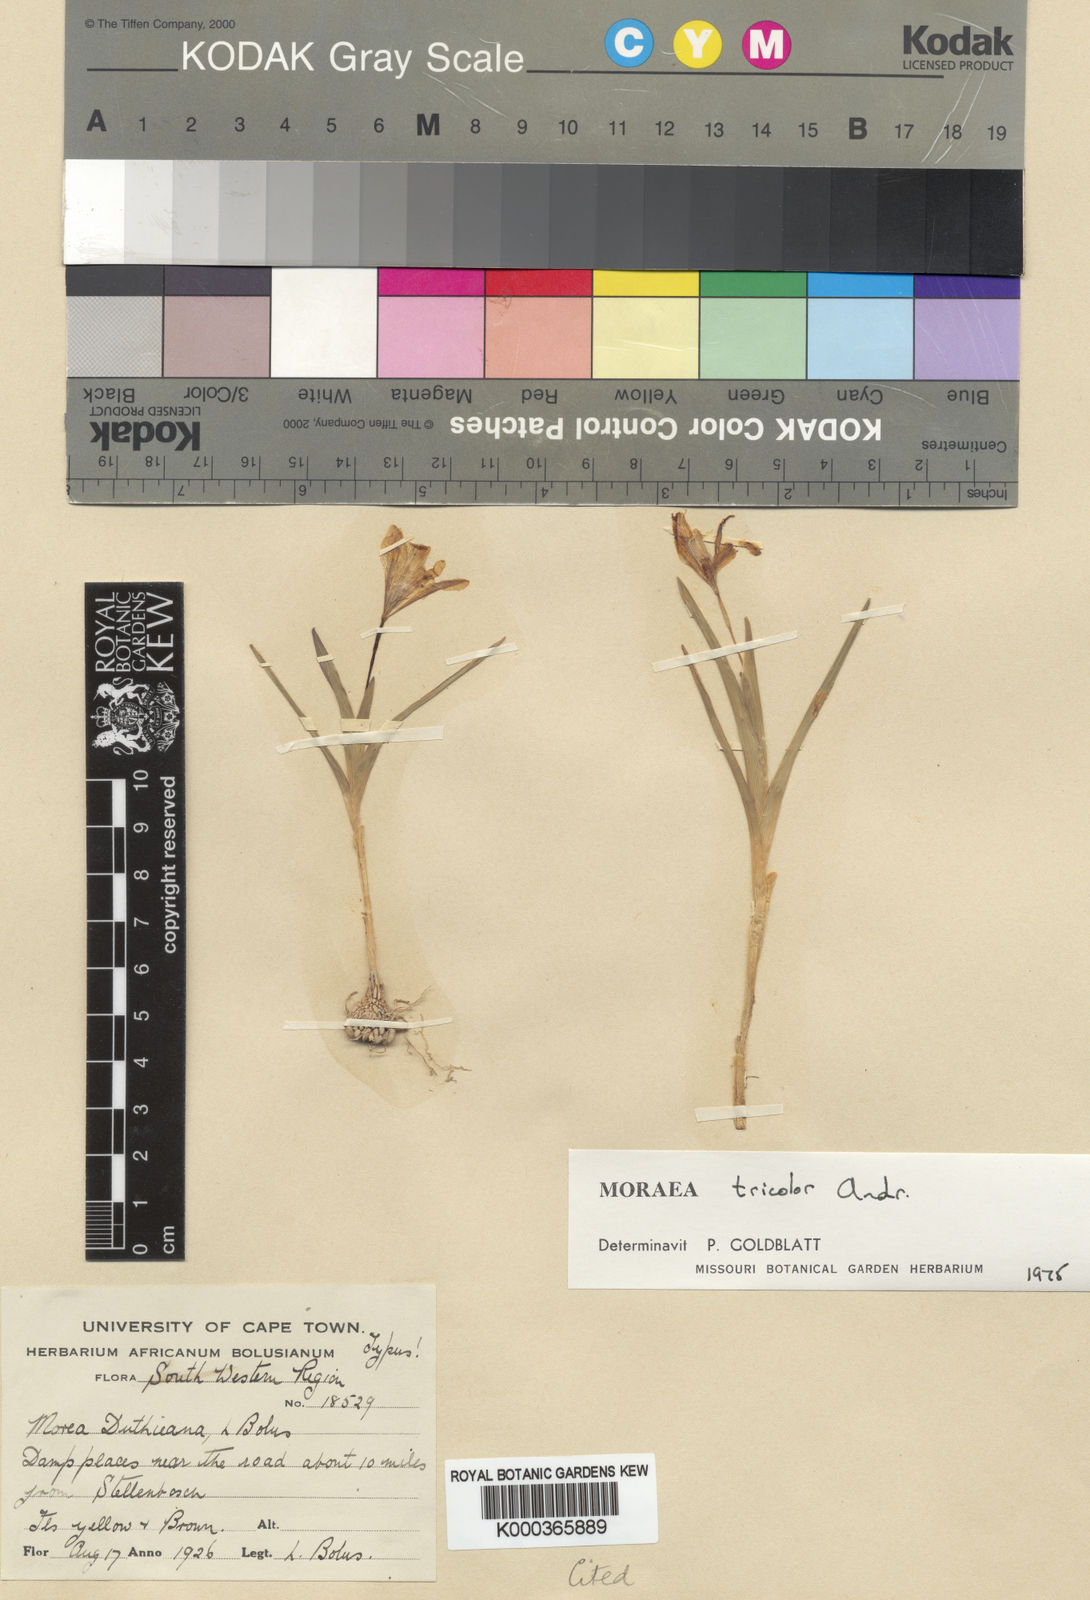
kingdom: Plantae
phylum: Tracheophyta
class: Liliopsida
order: Asparagales
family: Iridaceae
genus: Moraea
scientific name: Moraea tricolor
